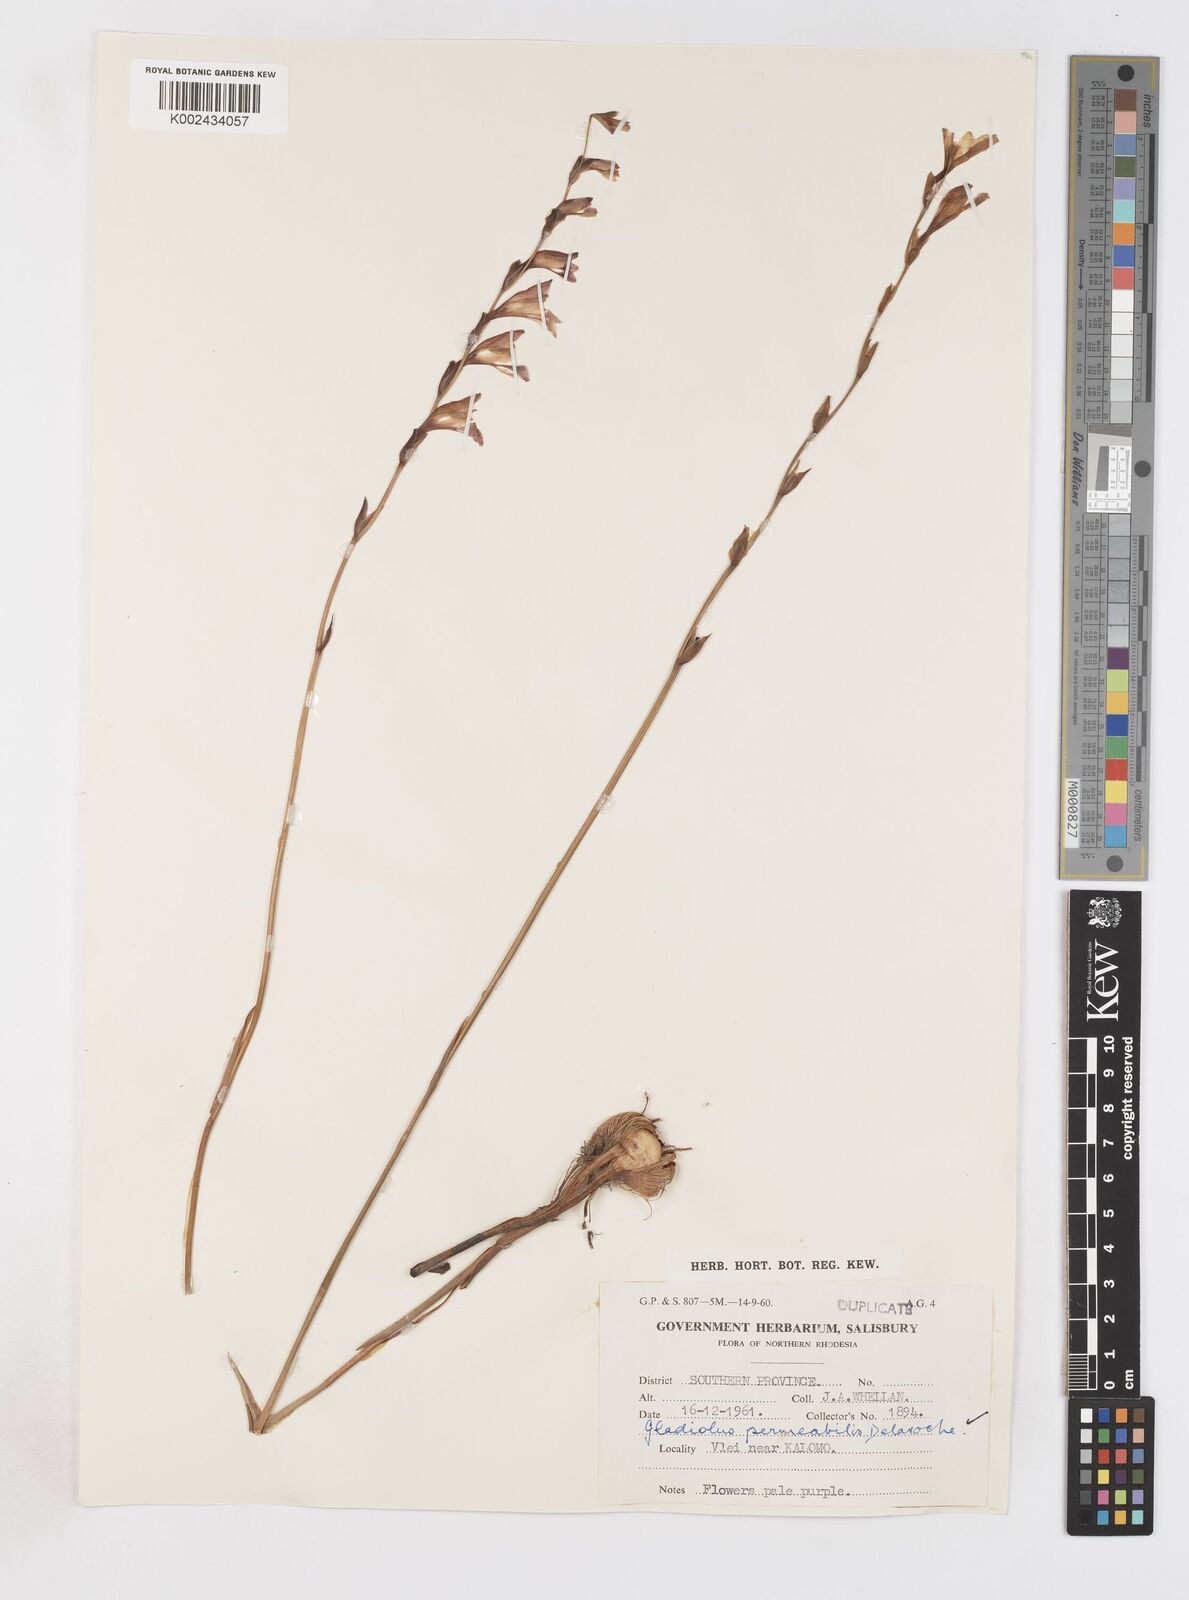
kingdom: Plantae
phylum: Tracheophyta
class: Liliopsida
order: Asparagales
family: Iridaceae
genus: Gladiolus
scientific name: Gladiolus atropurpureus
